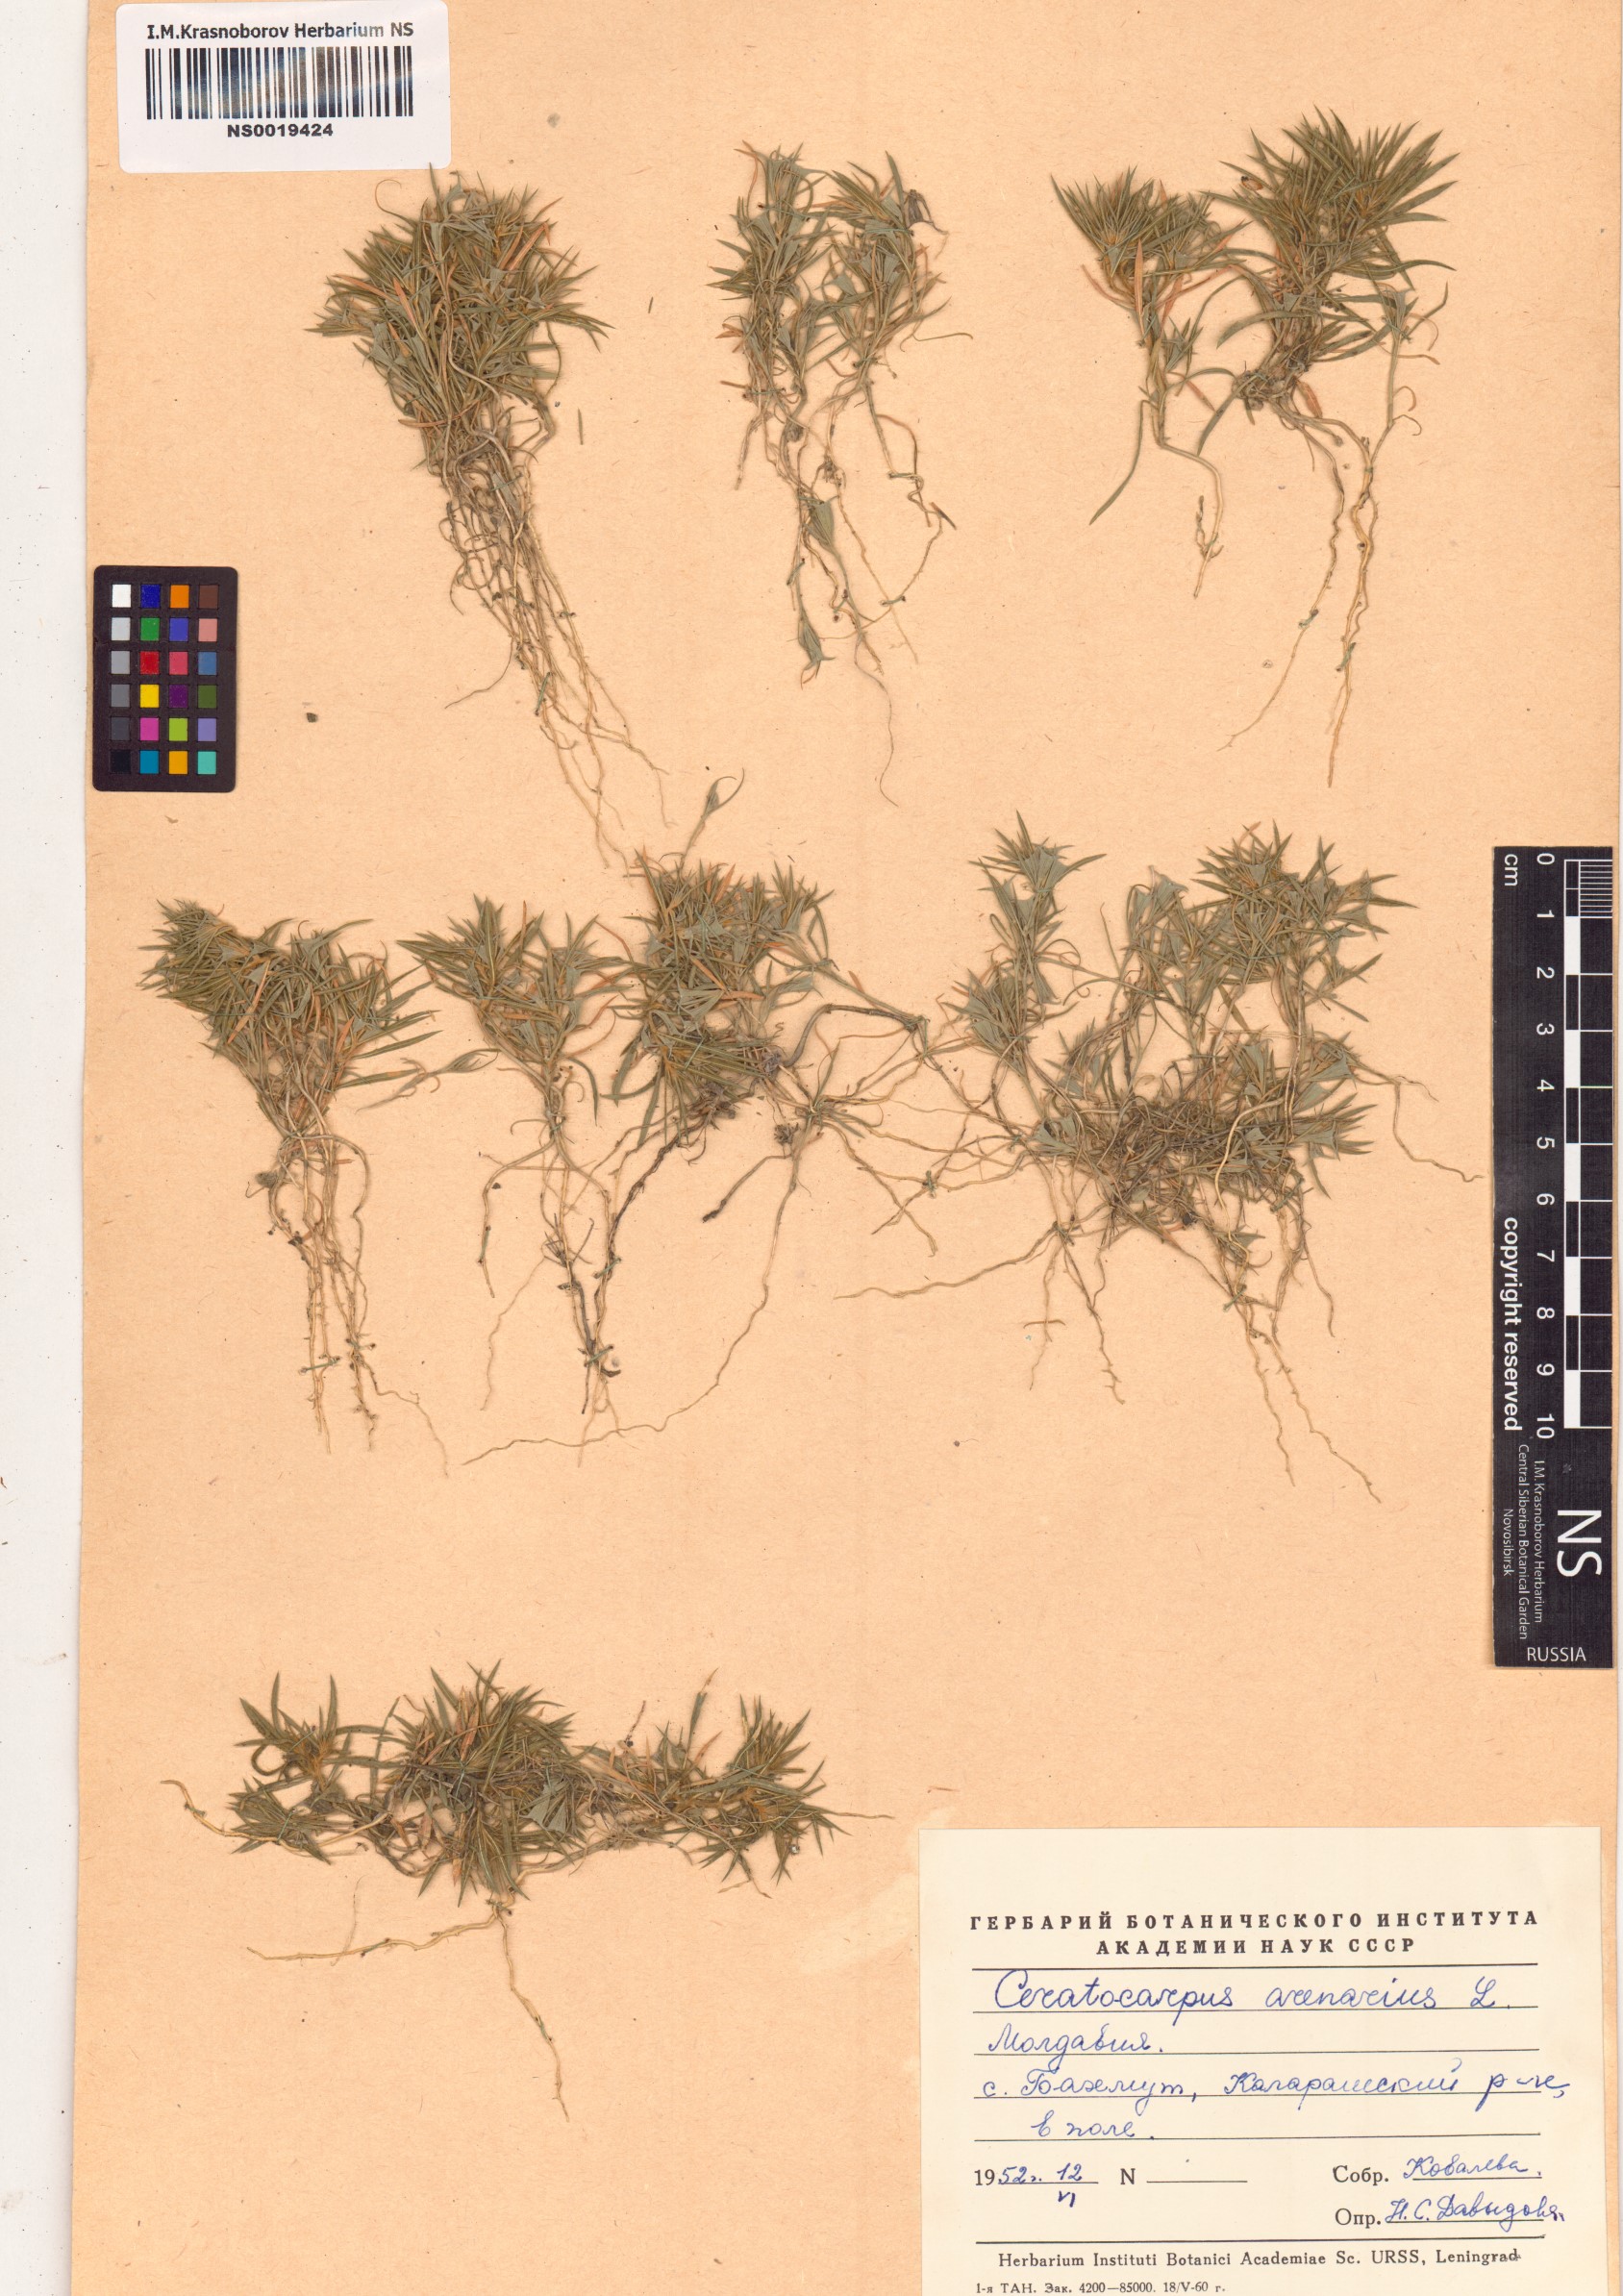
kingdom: Plantae
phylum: Tracheophyta
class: Magnoliopsida
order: Caryophyllales
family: Amaranthaceae
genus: Ceratocarpus
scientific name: Ceratocarpus arenarius
